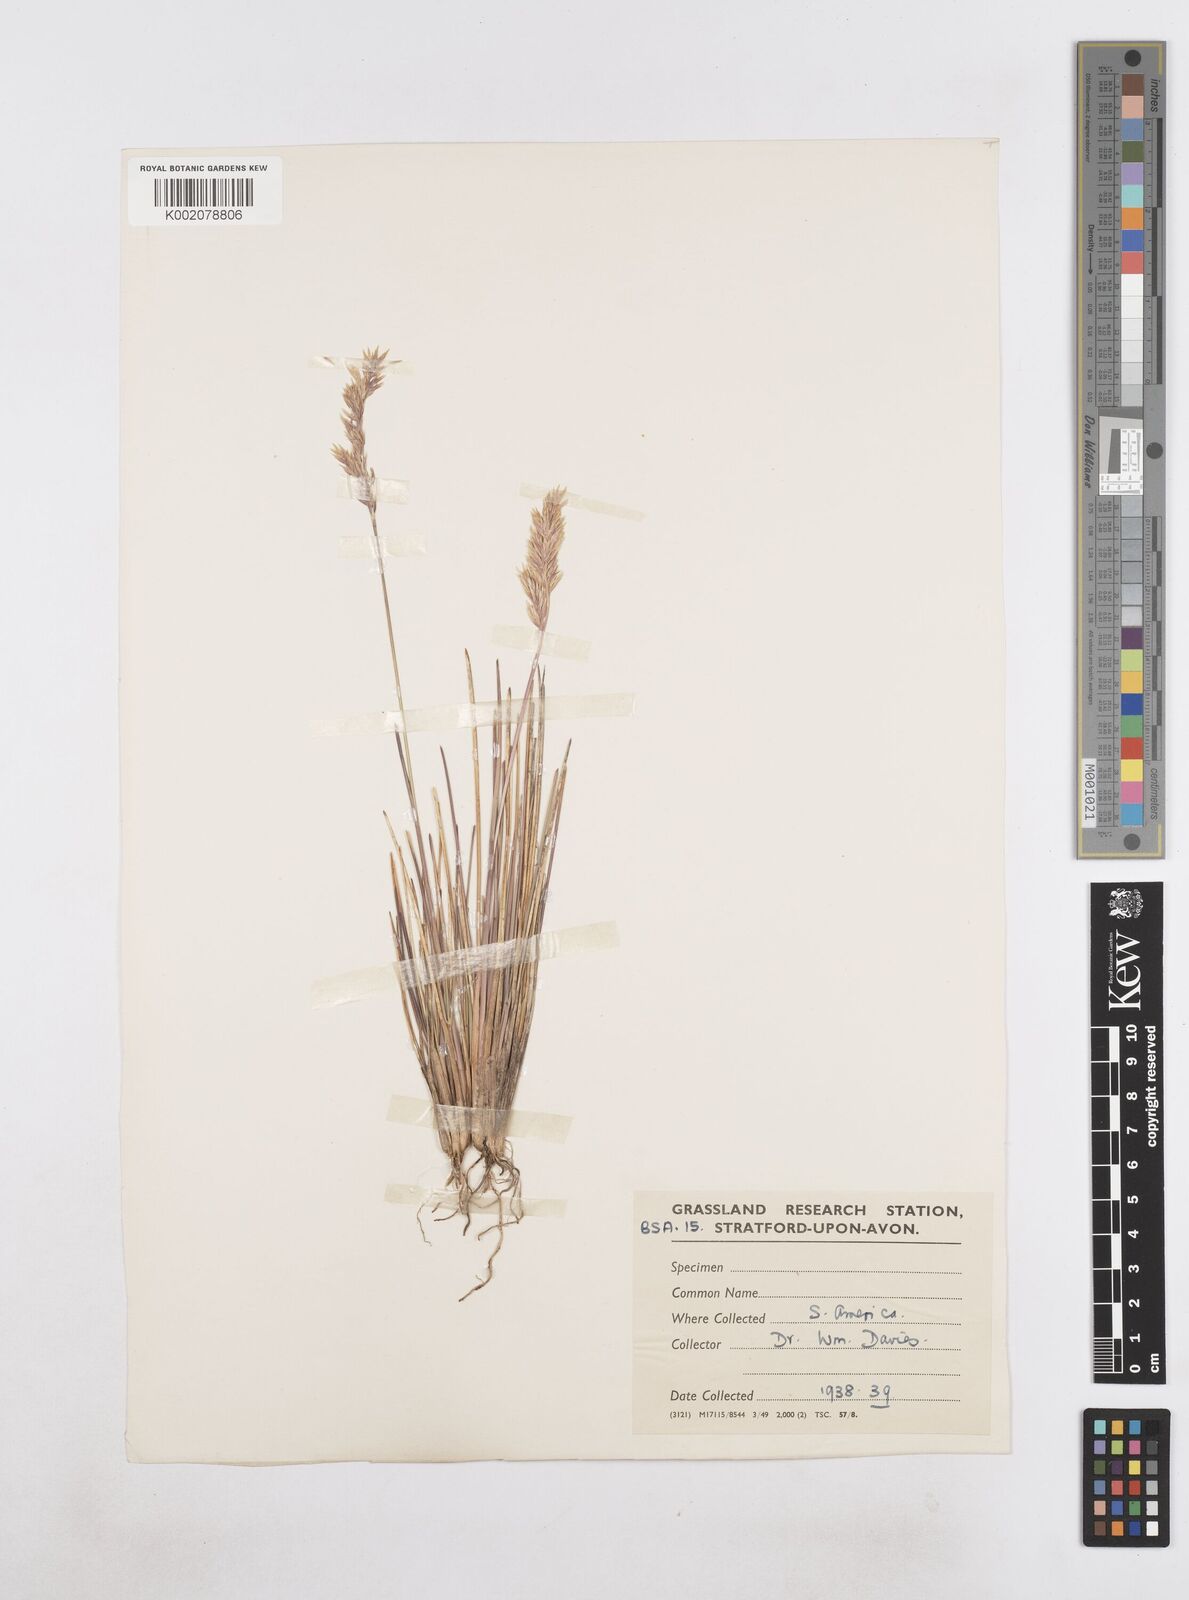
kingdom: Plantae
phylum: Tracheophyta
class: Liliopsida
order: Poales
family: Poaceae
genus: Poa
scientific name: Poa
